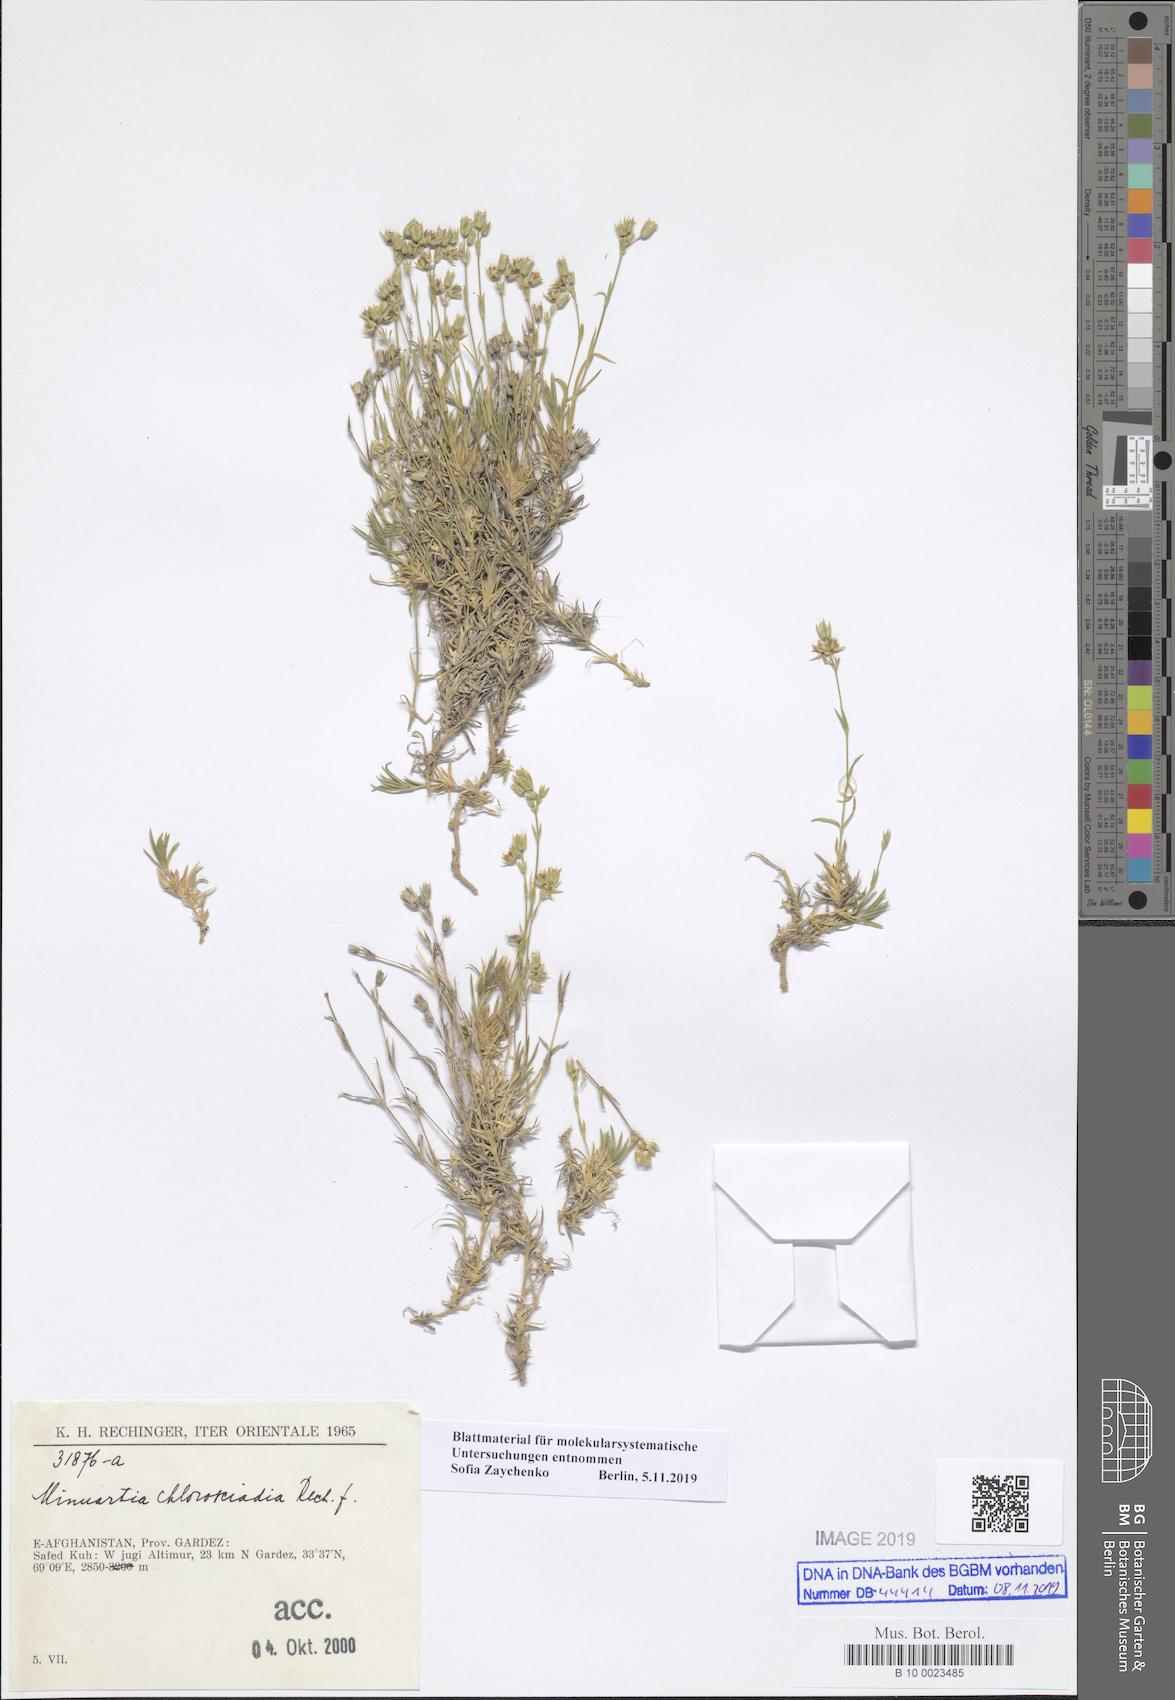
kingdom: Plantae
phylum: Tracheophyta
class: Magnoliopsida
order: Caryophyllales
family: Caryophyllaceae
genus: Sabulina
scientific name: Sabulina chlorosciadia
